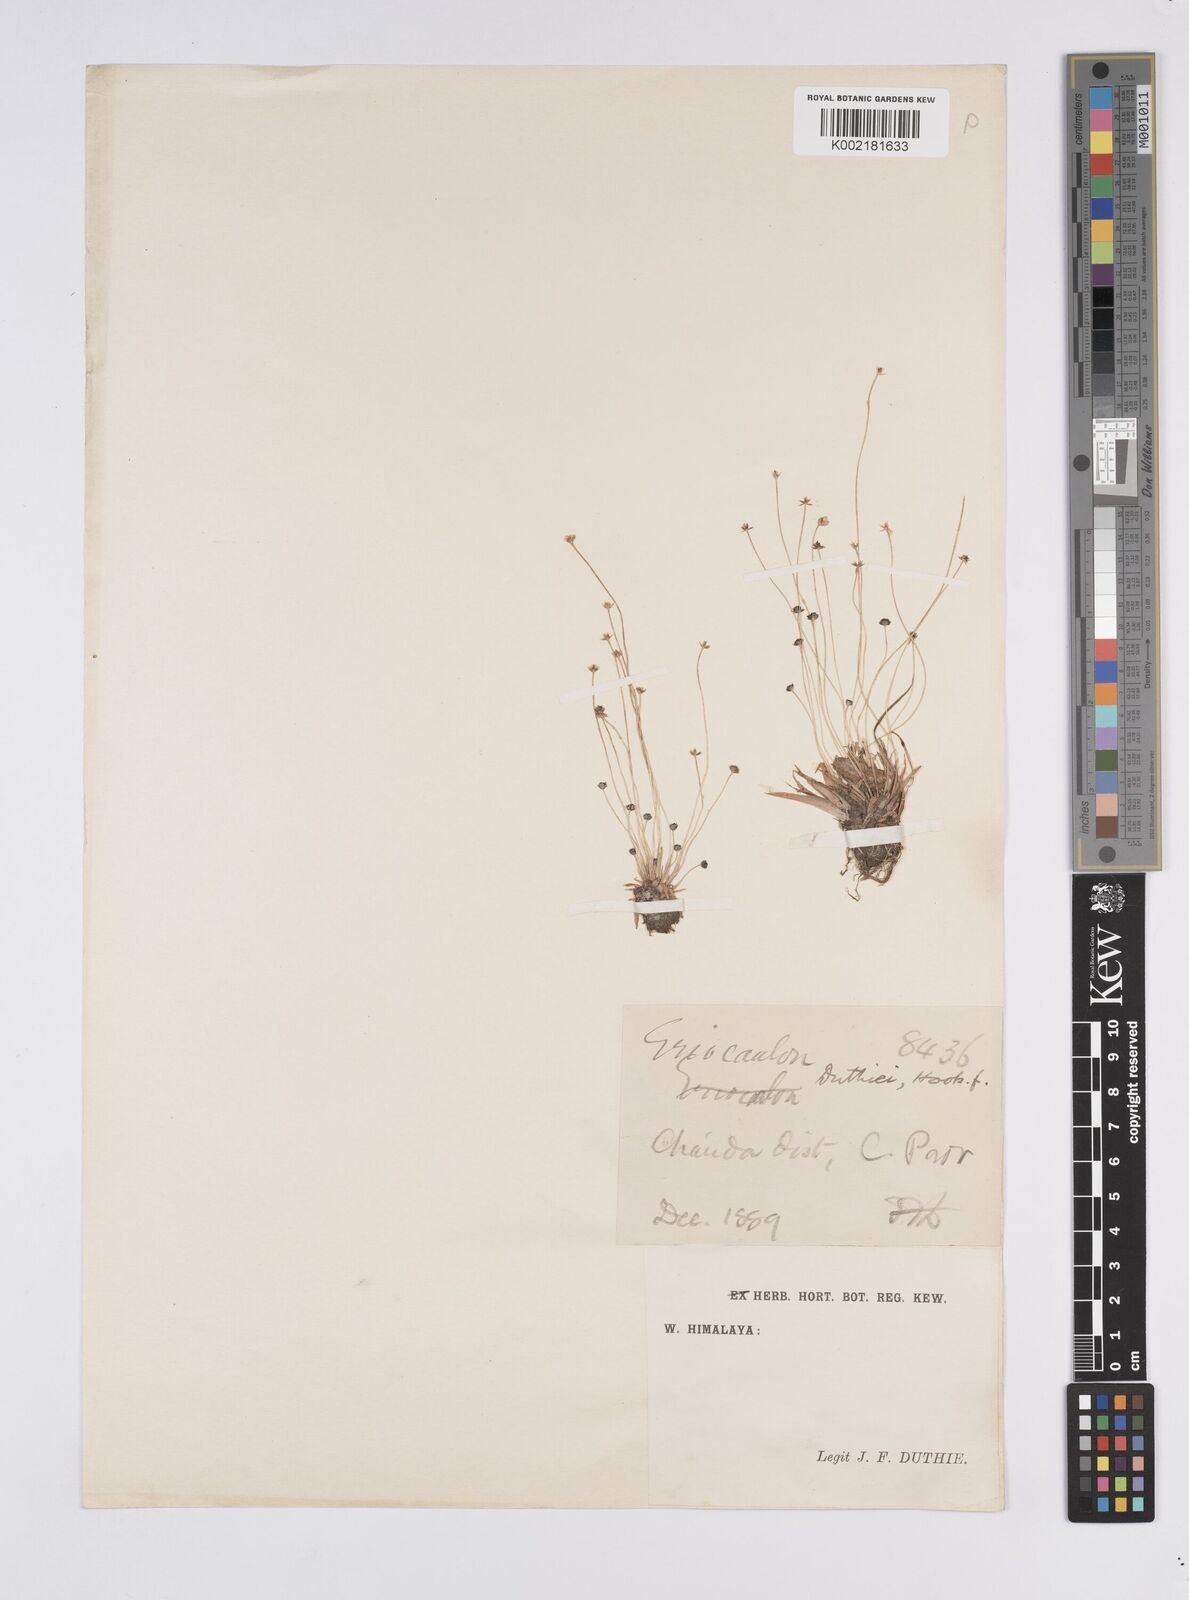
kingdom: Plantae
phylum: Tracheophyta
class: Liliopsida
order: Poales
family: Eriocaulaceae
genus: Eriocaulon
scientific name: Eriocaulon duthiei
